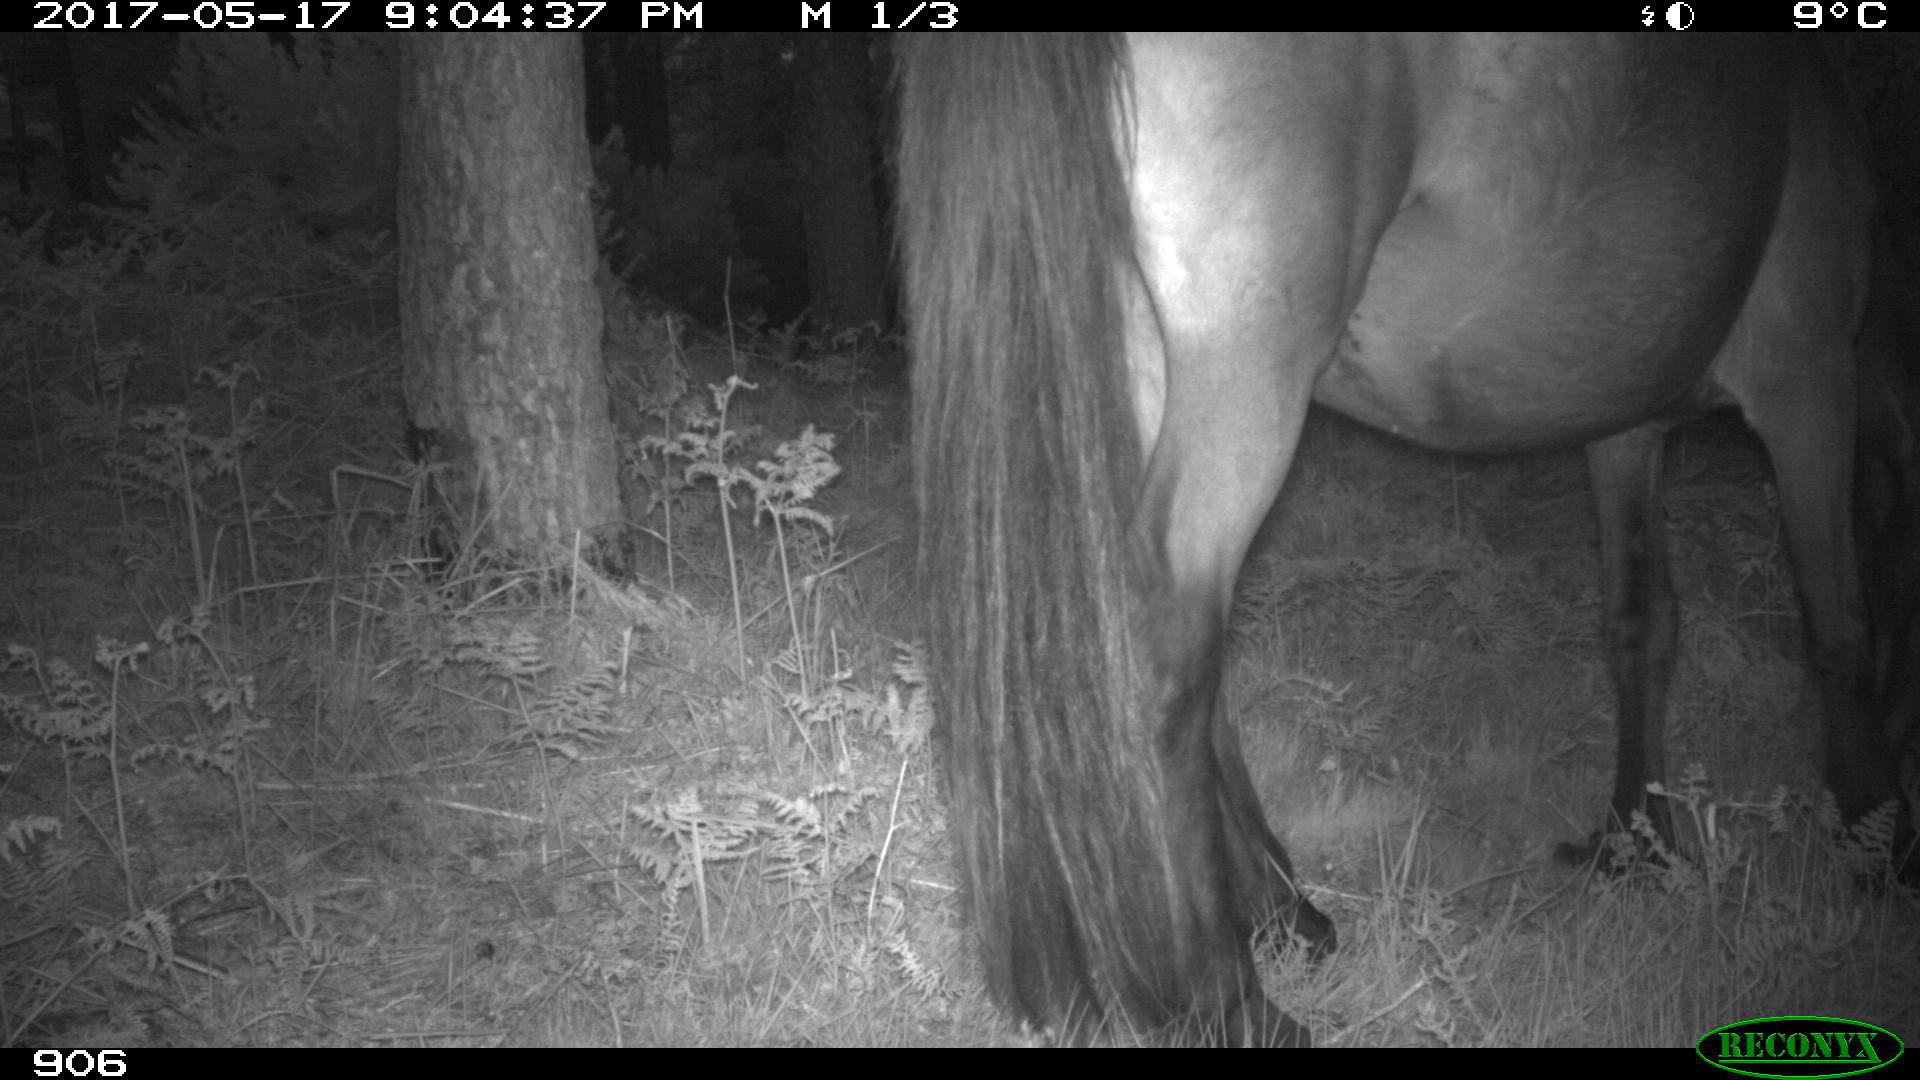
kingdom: Animalia
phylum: Chordata
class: Mammalia
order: Perissodactyla
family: Equidae
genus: Equus
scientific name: Equus caballus
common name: Horse
